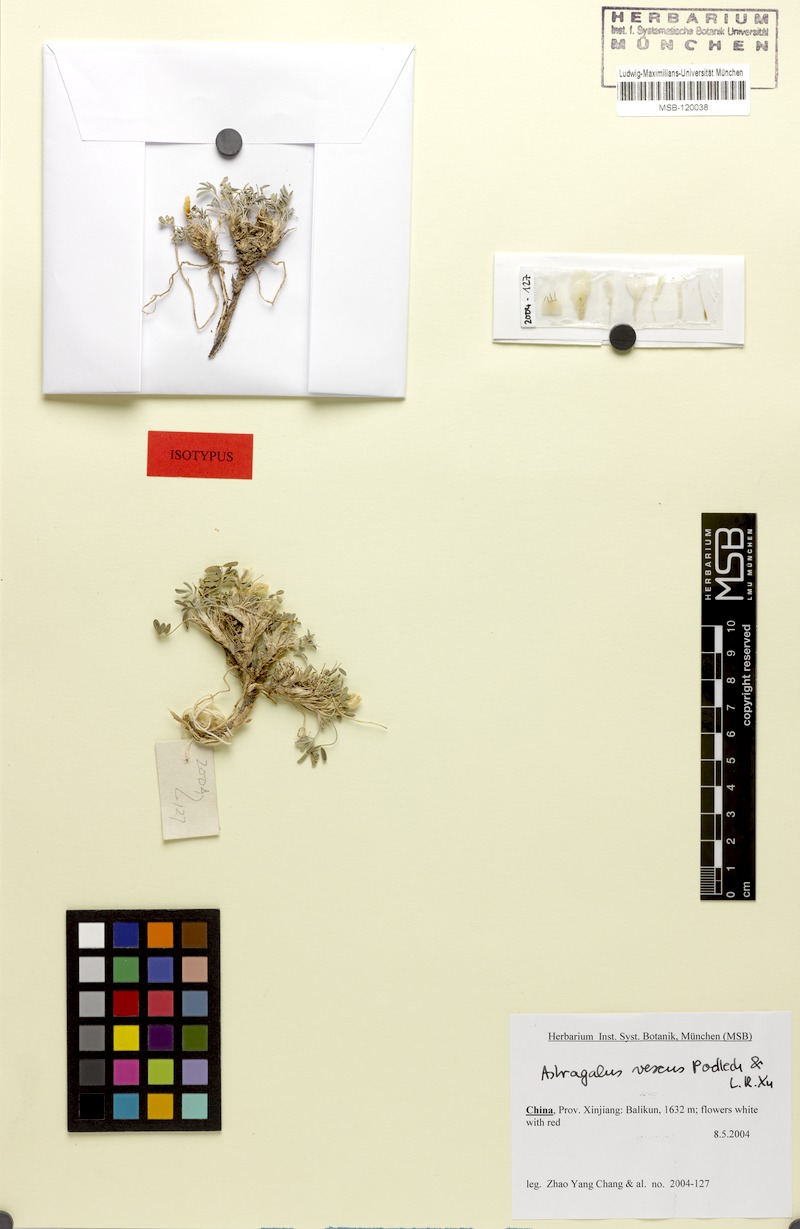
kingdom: Plantae
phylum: Tracheophyta
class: Magnoliopsida
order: Fabales
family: Fabaceae
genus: Astragalus
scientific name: Astragalus vescus
